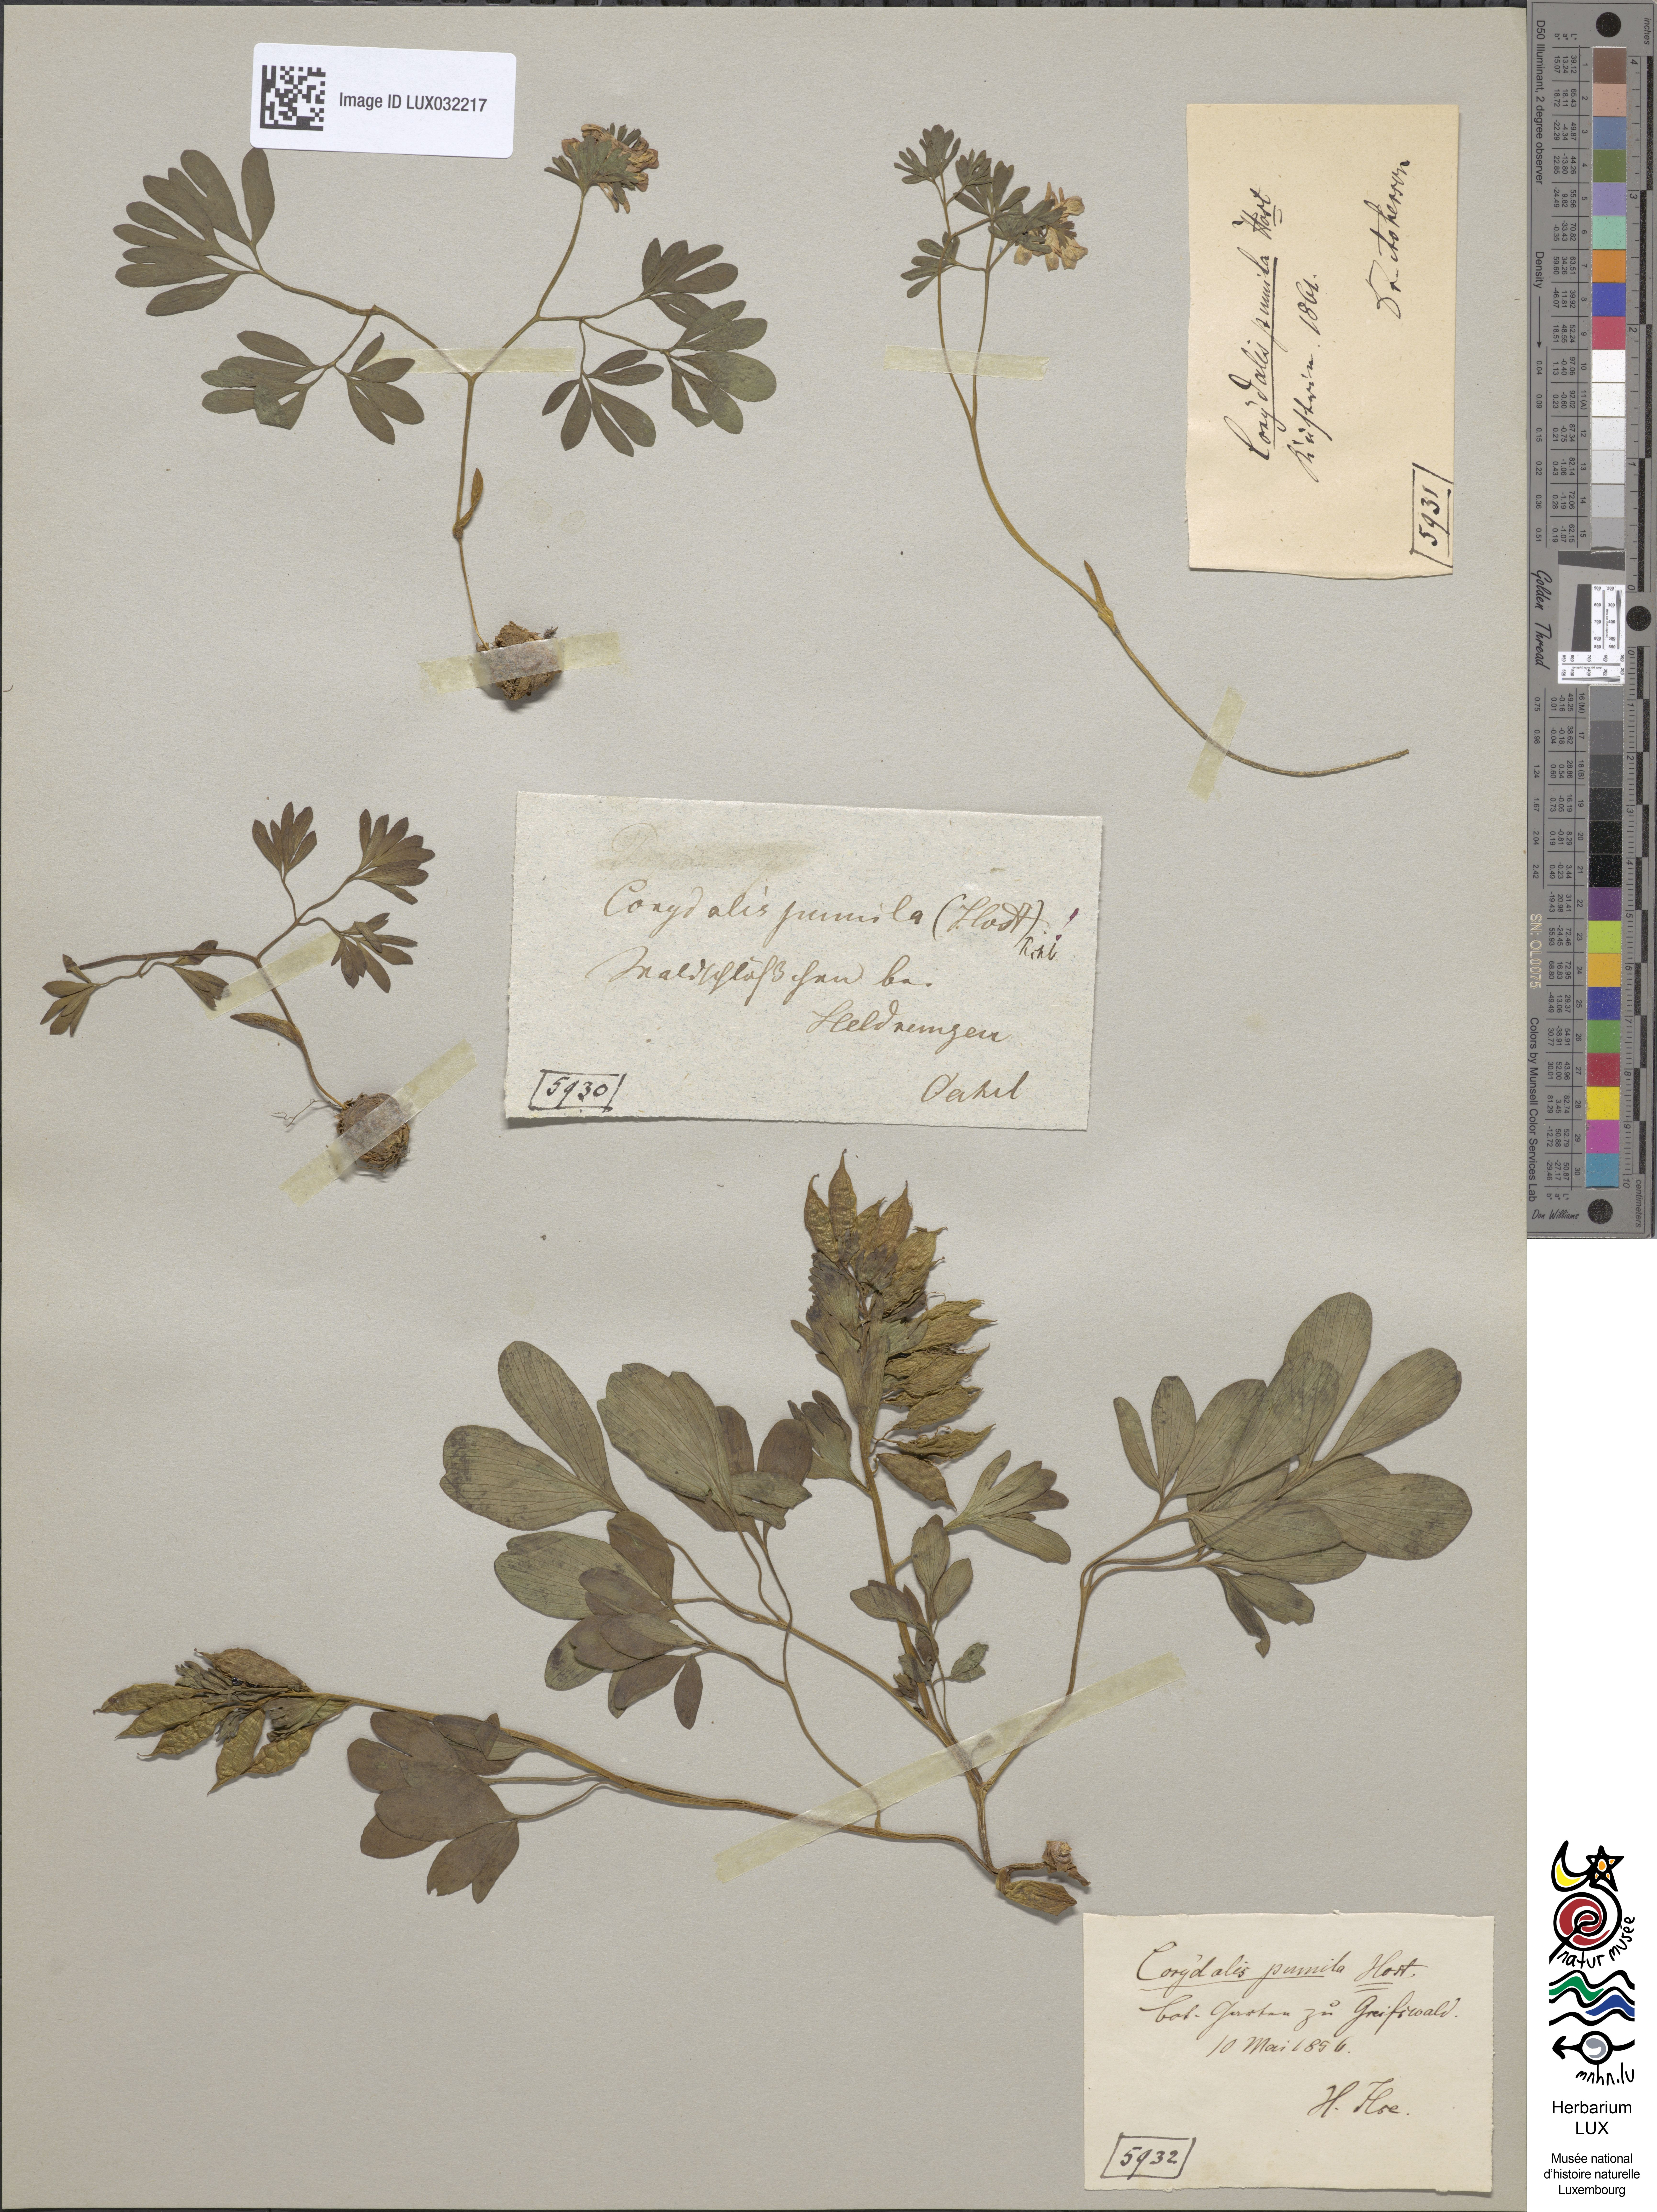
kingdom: Plantae
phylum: Tracheophyta
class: Magnoliopsida
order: Ranunculales
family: Papaveraceae
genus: Corydalis
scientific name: Corydalis pumila
